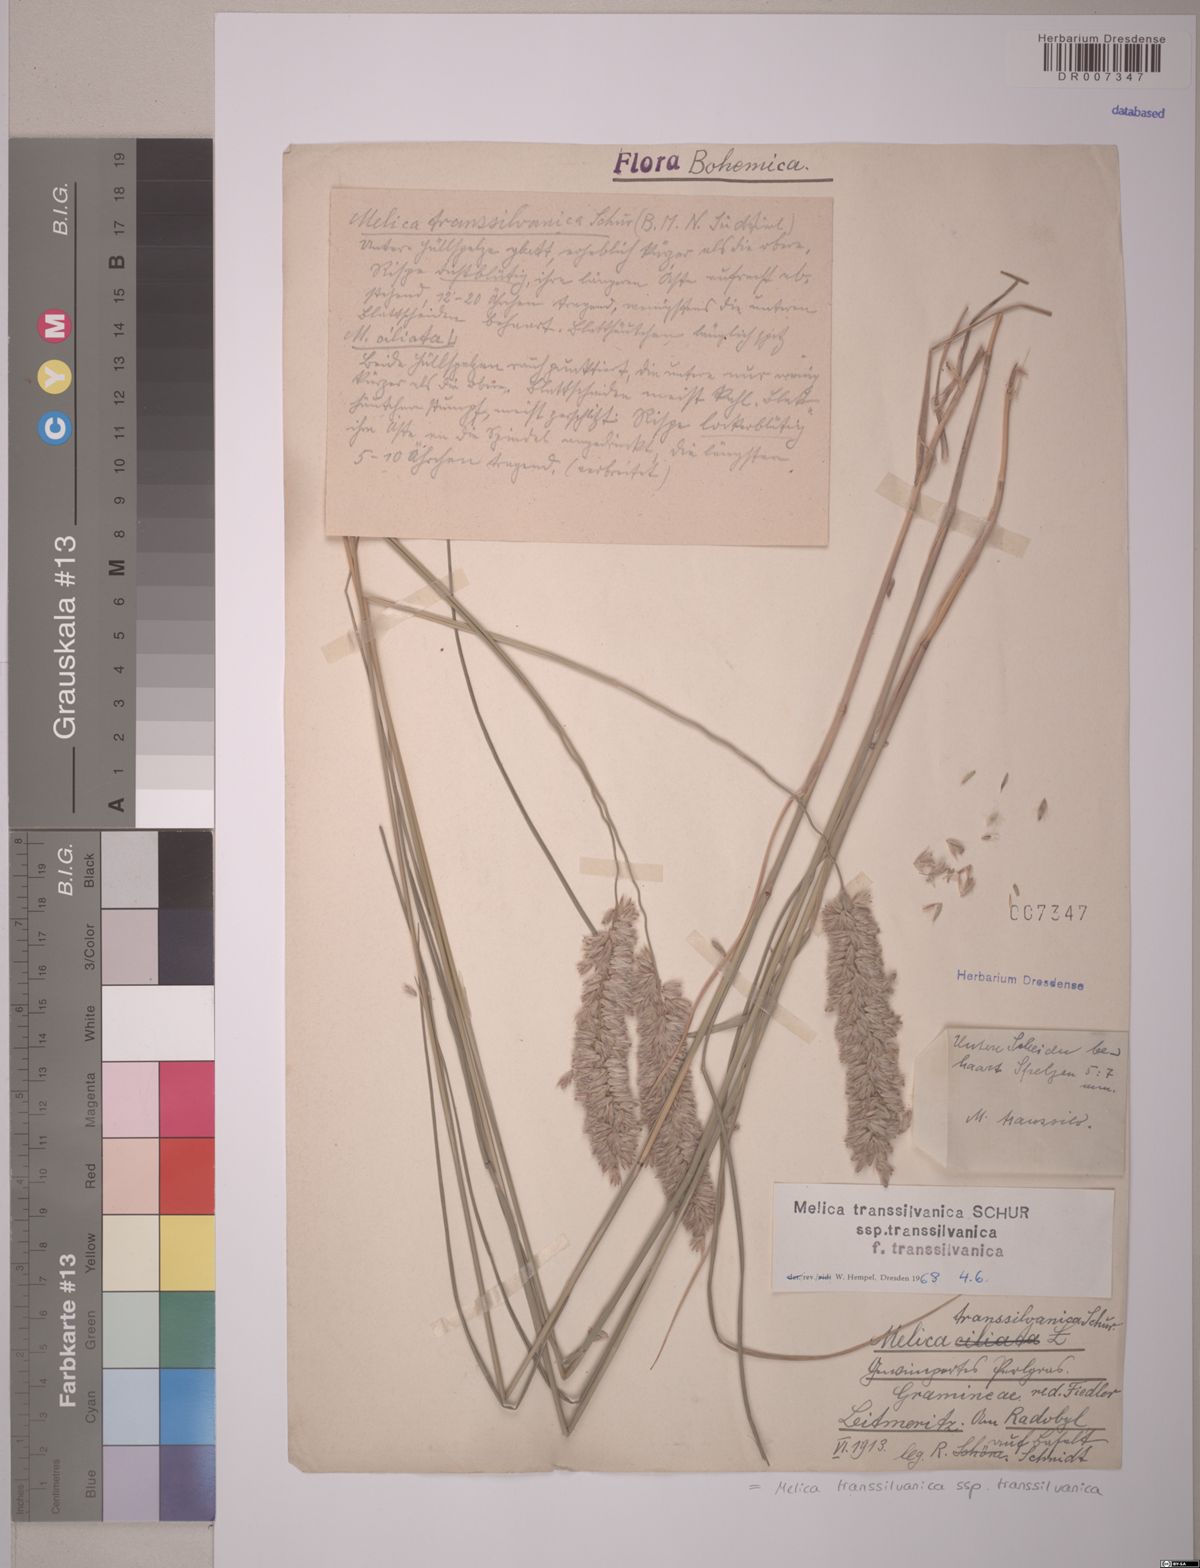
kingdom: Plantae
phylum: Tracheophyta
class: Liliopsida
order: Poales
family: Poaceae
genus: Melica
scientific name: Melica transsilvanica
